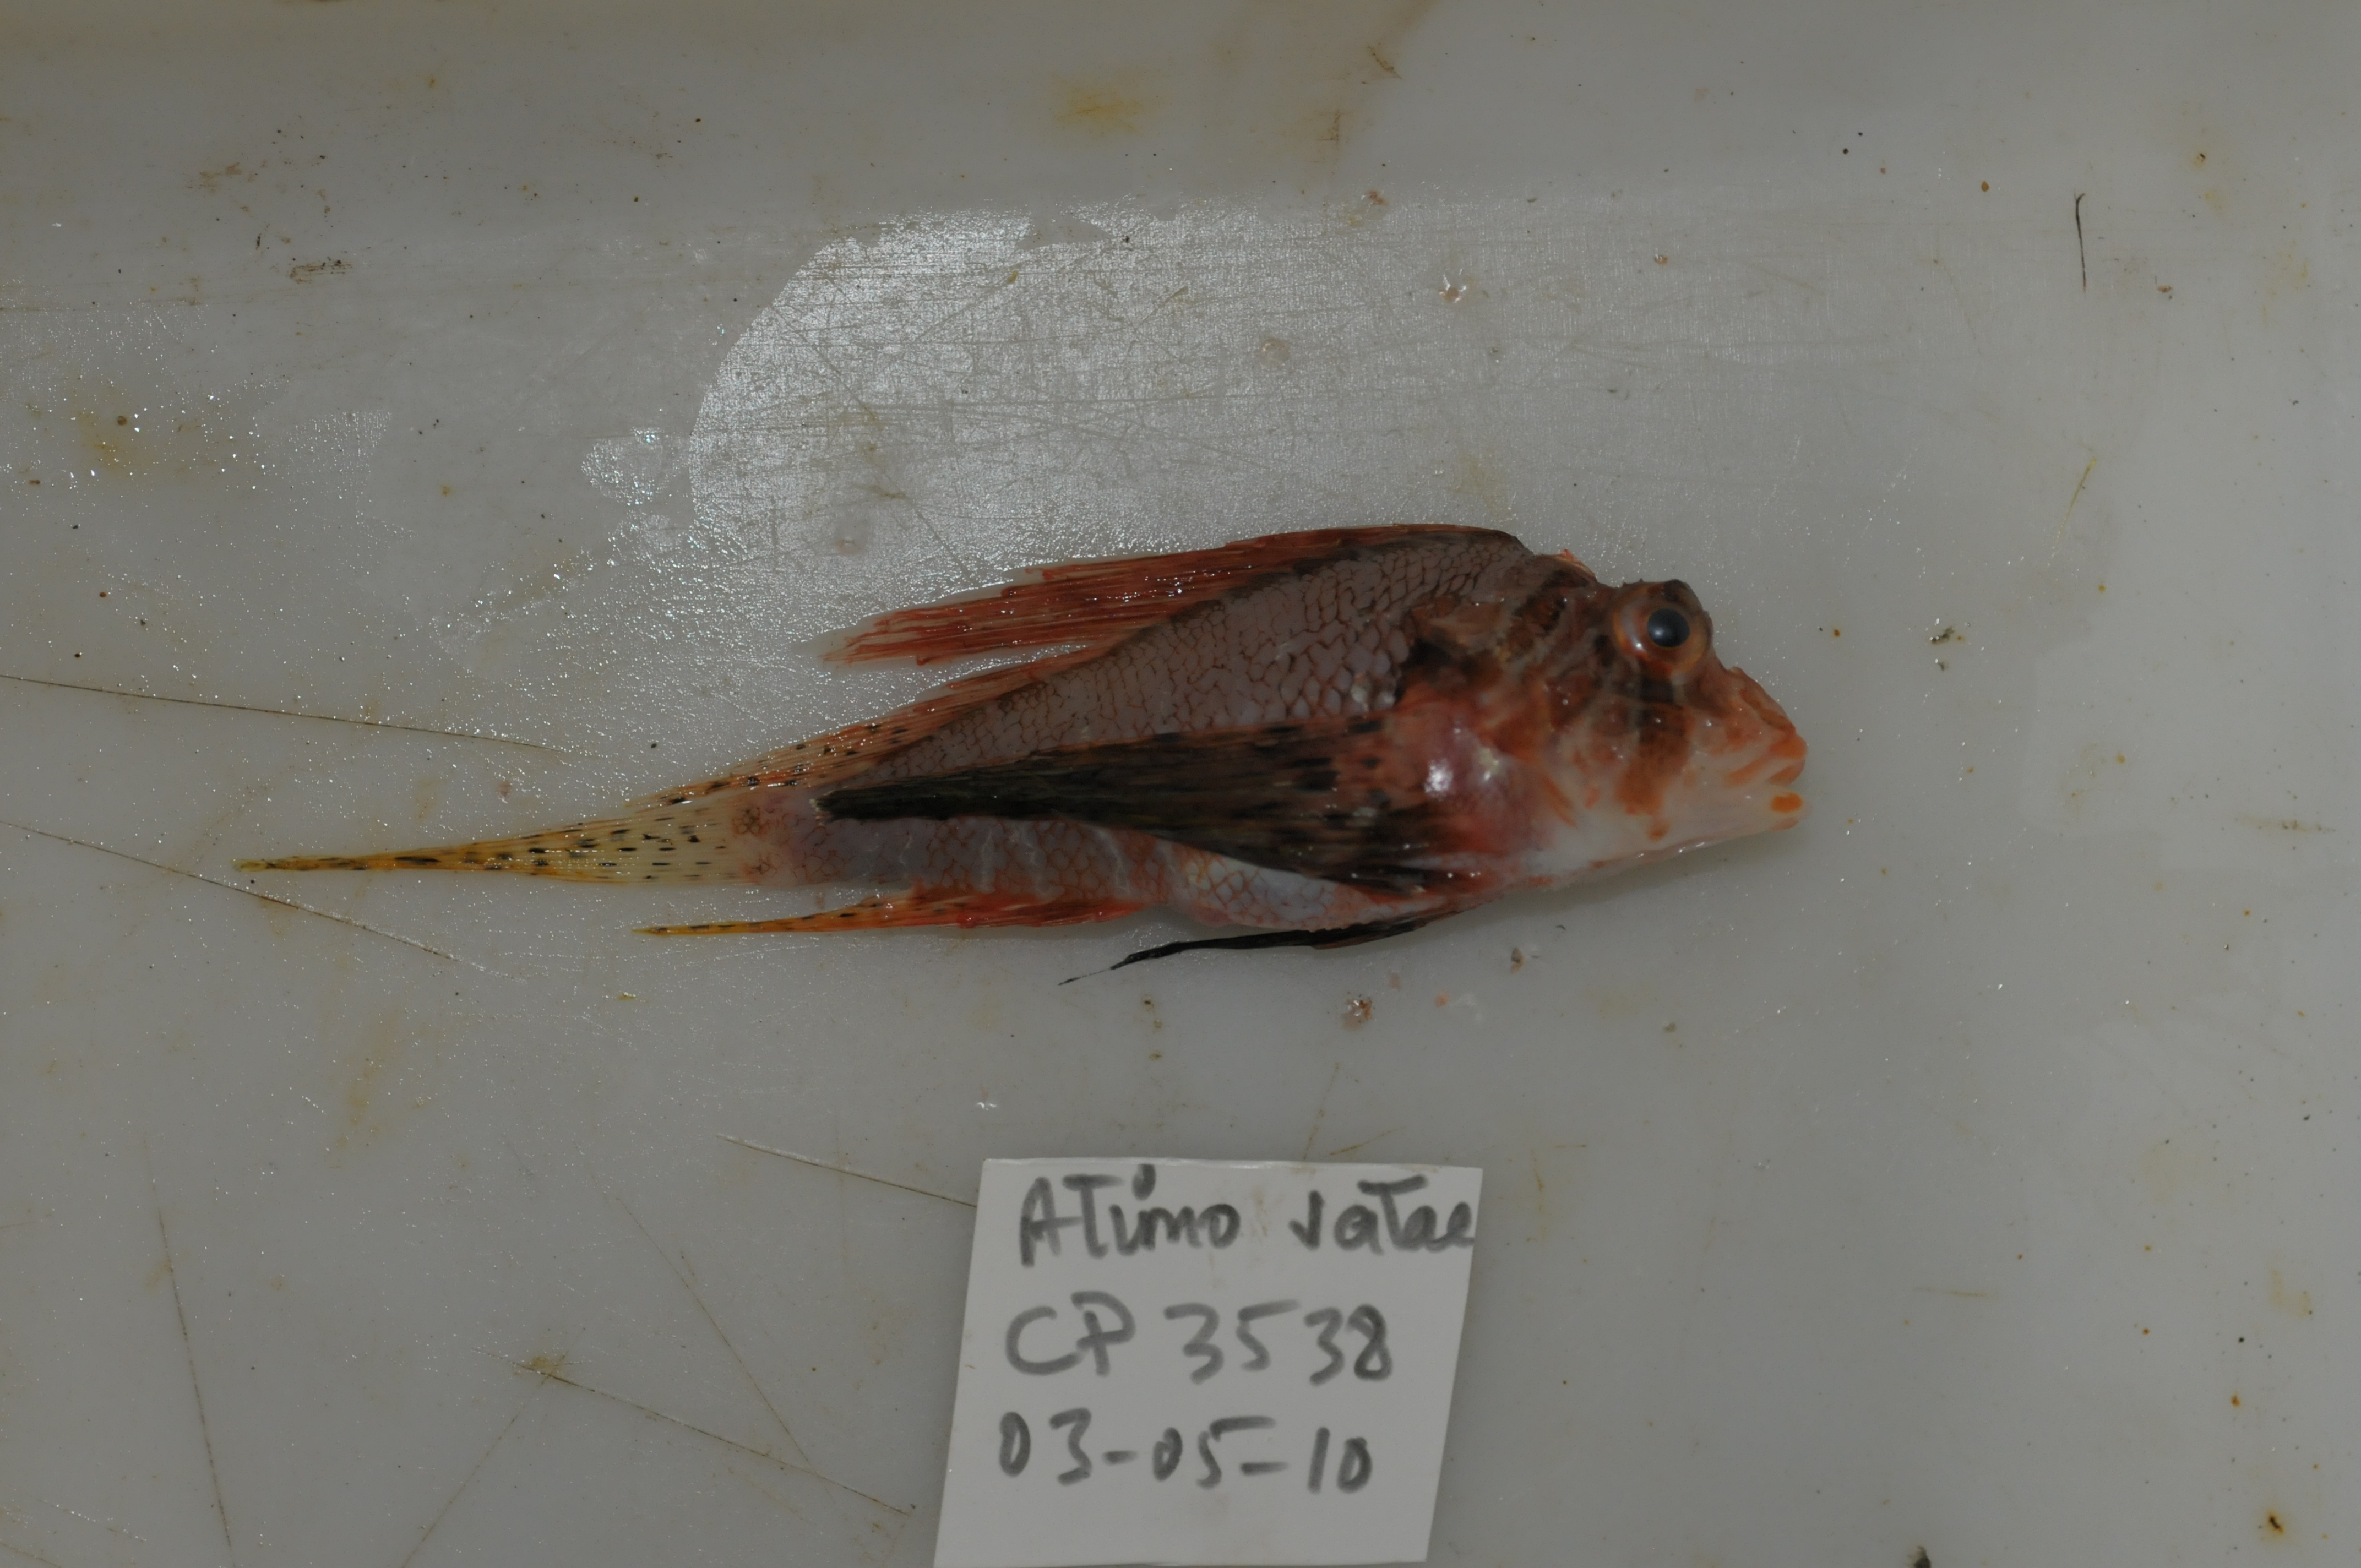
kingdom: Animalia
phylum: Chordata
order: Scorpaeniformes
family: Scorpaenidae
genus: Ebosia
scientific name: Ebosia vespertina
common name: Western falcate lionfish
